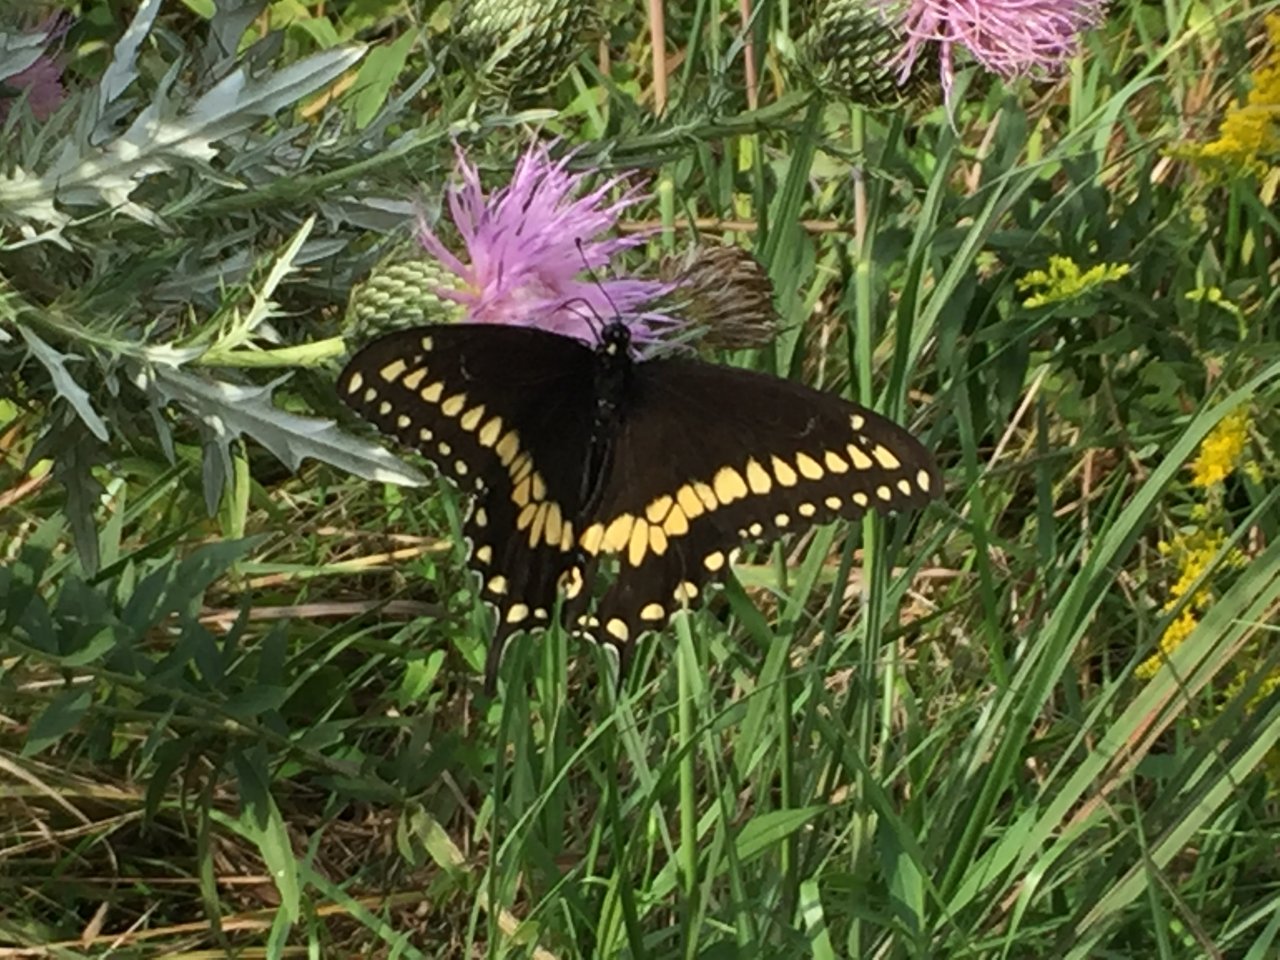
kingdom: Animalia
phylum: Arthropoda
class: Insecta
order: Lepidoptera
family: Papilionidae
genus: Papilio
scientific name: Papilio polyxenes
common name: Black Swallowtail
